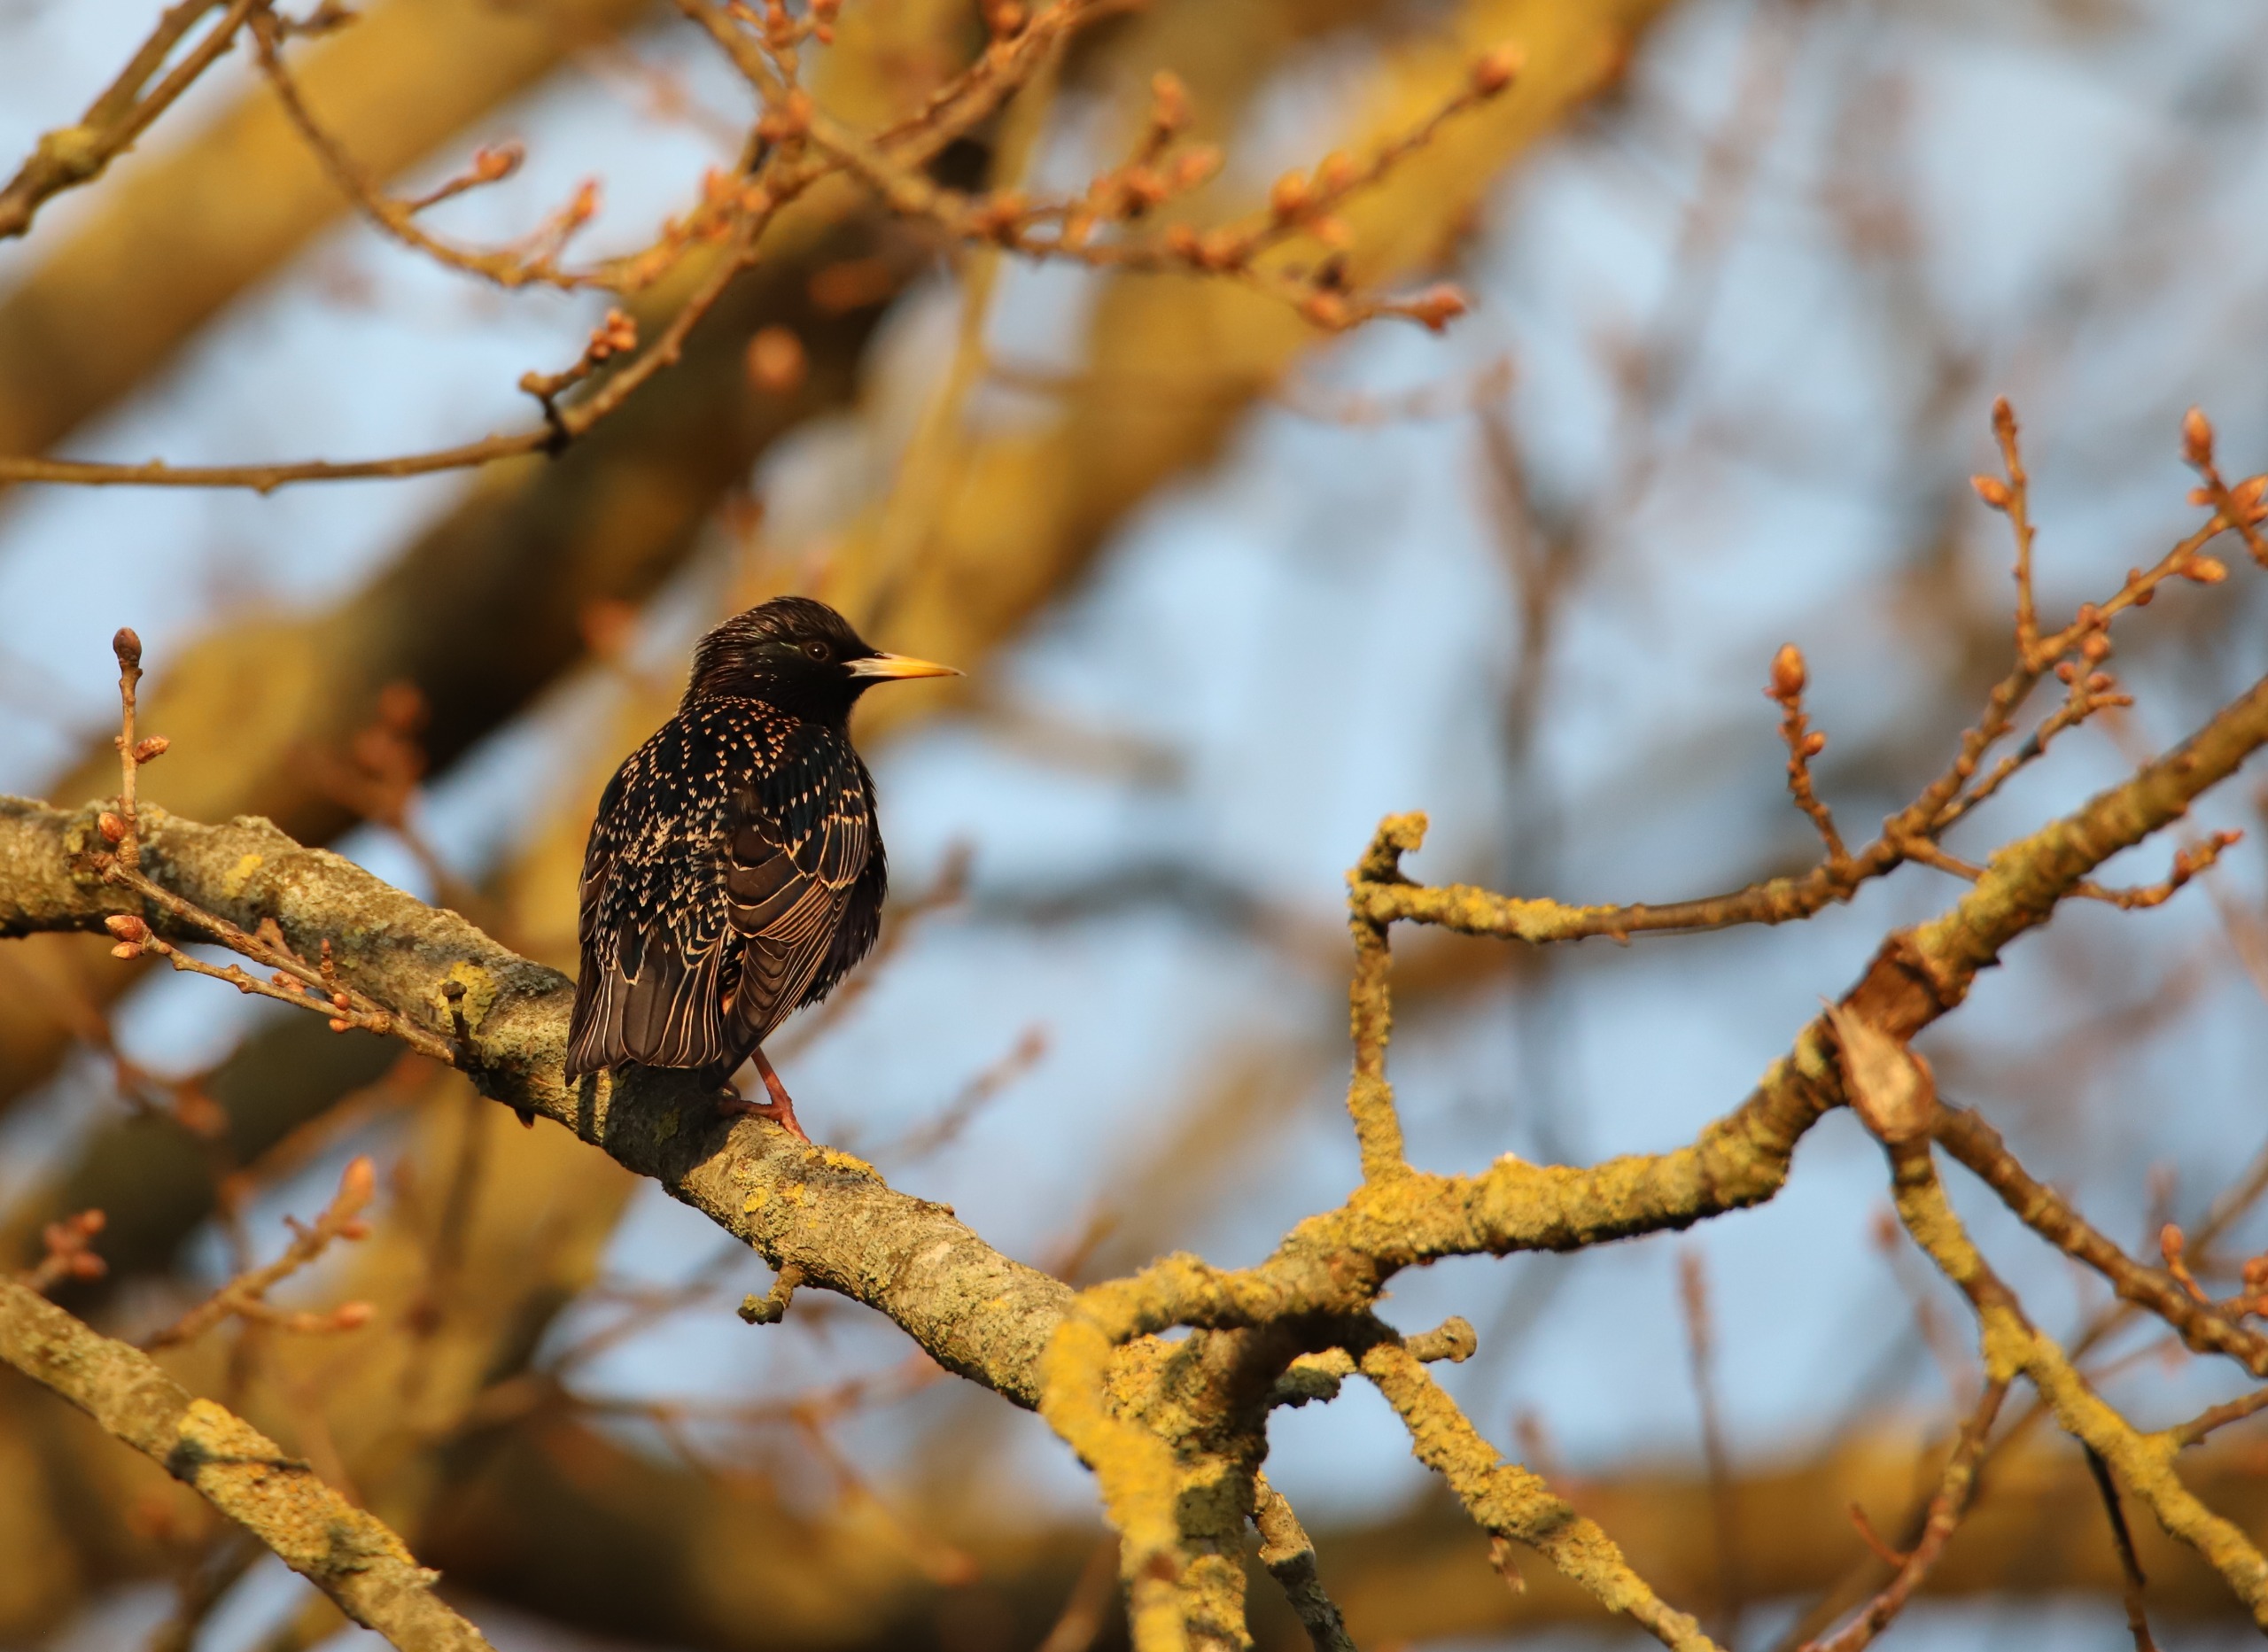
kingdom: Animalia
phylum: Chordata
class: Aves
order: Passeriformes
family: Sturnidae
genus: Sturnus
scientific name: Sturnus vulgaris
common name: Stær
